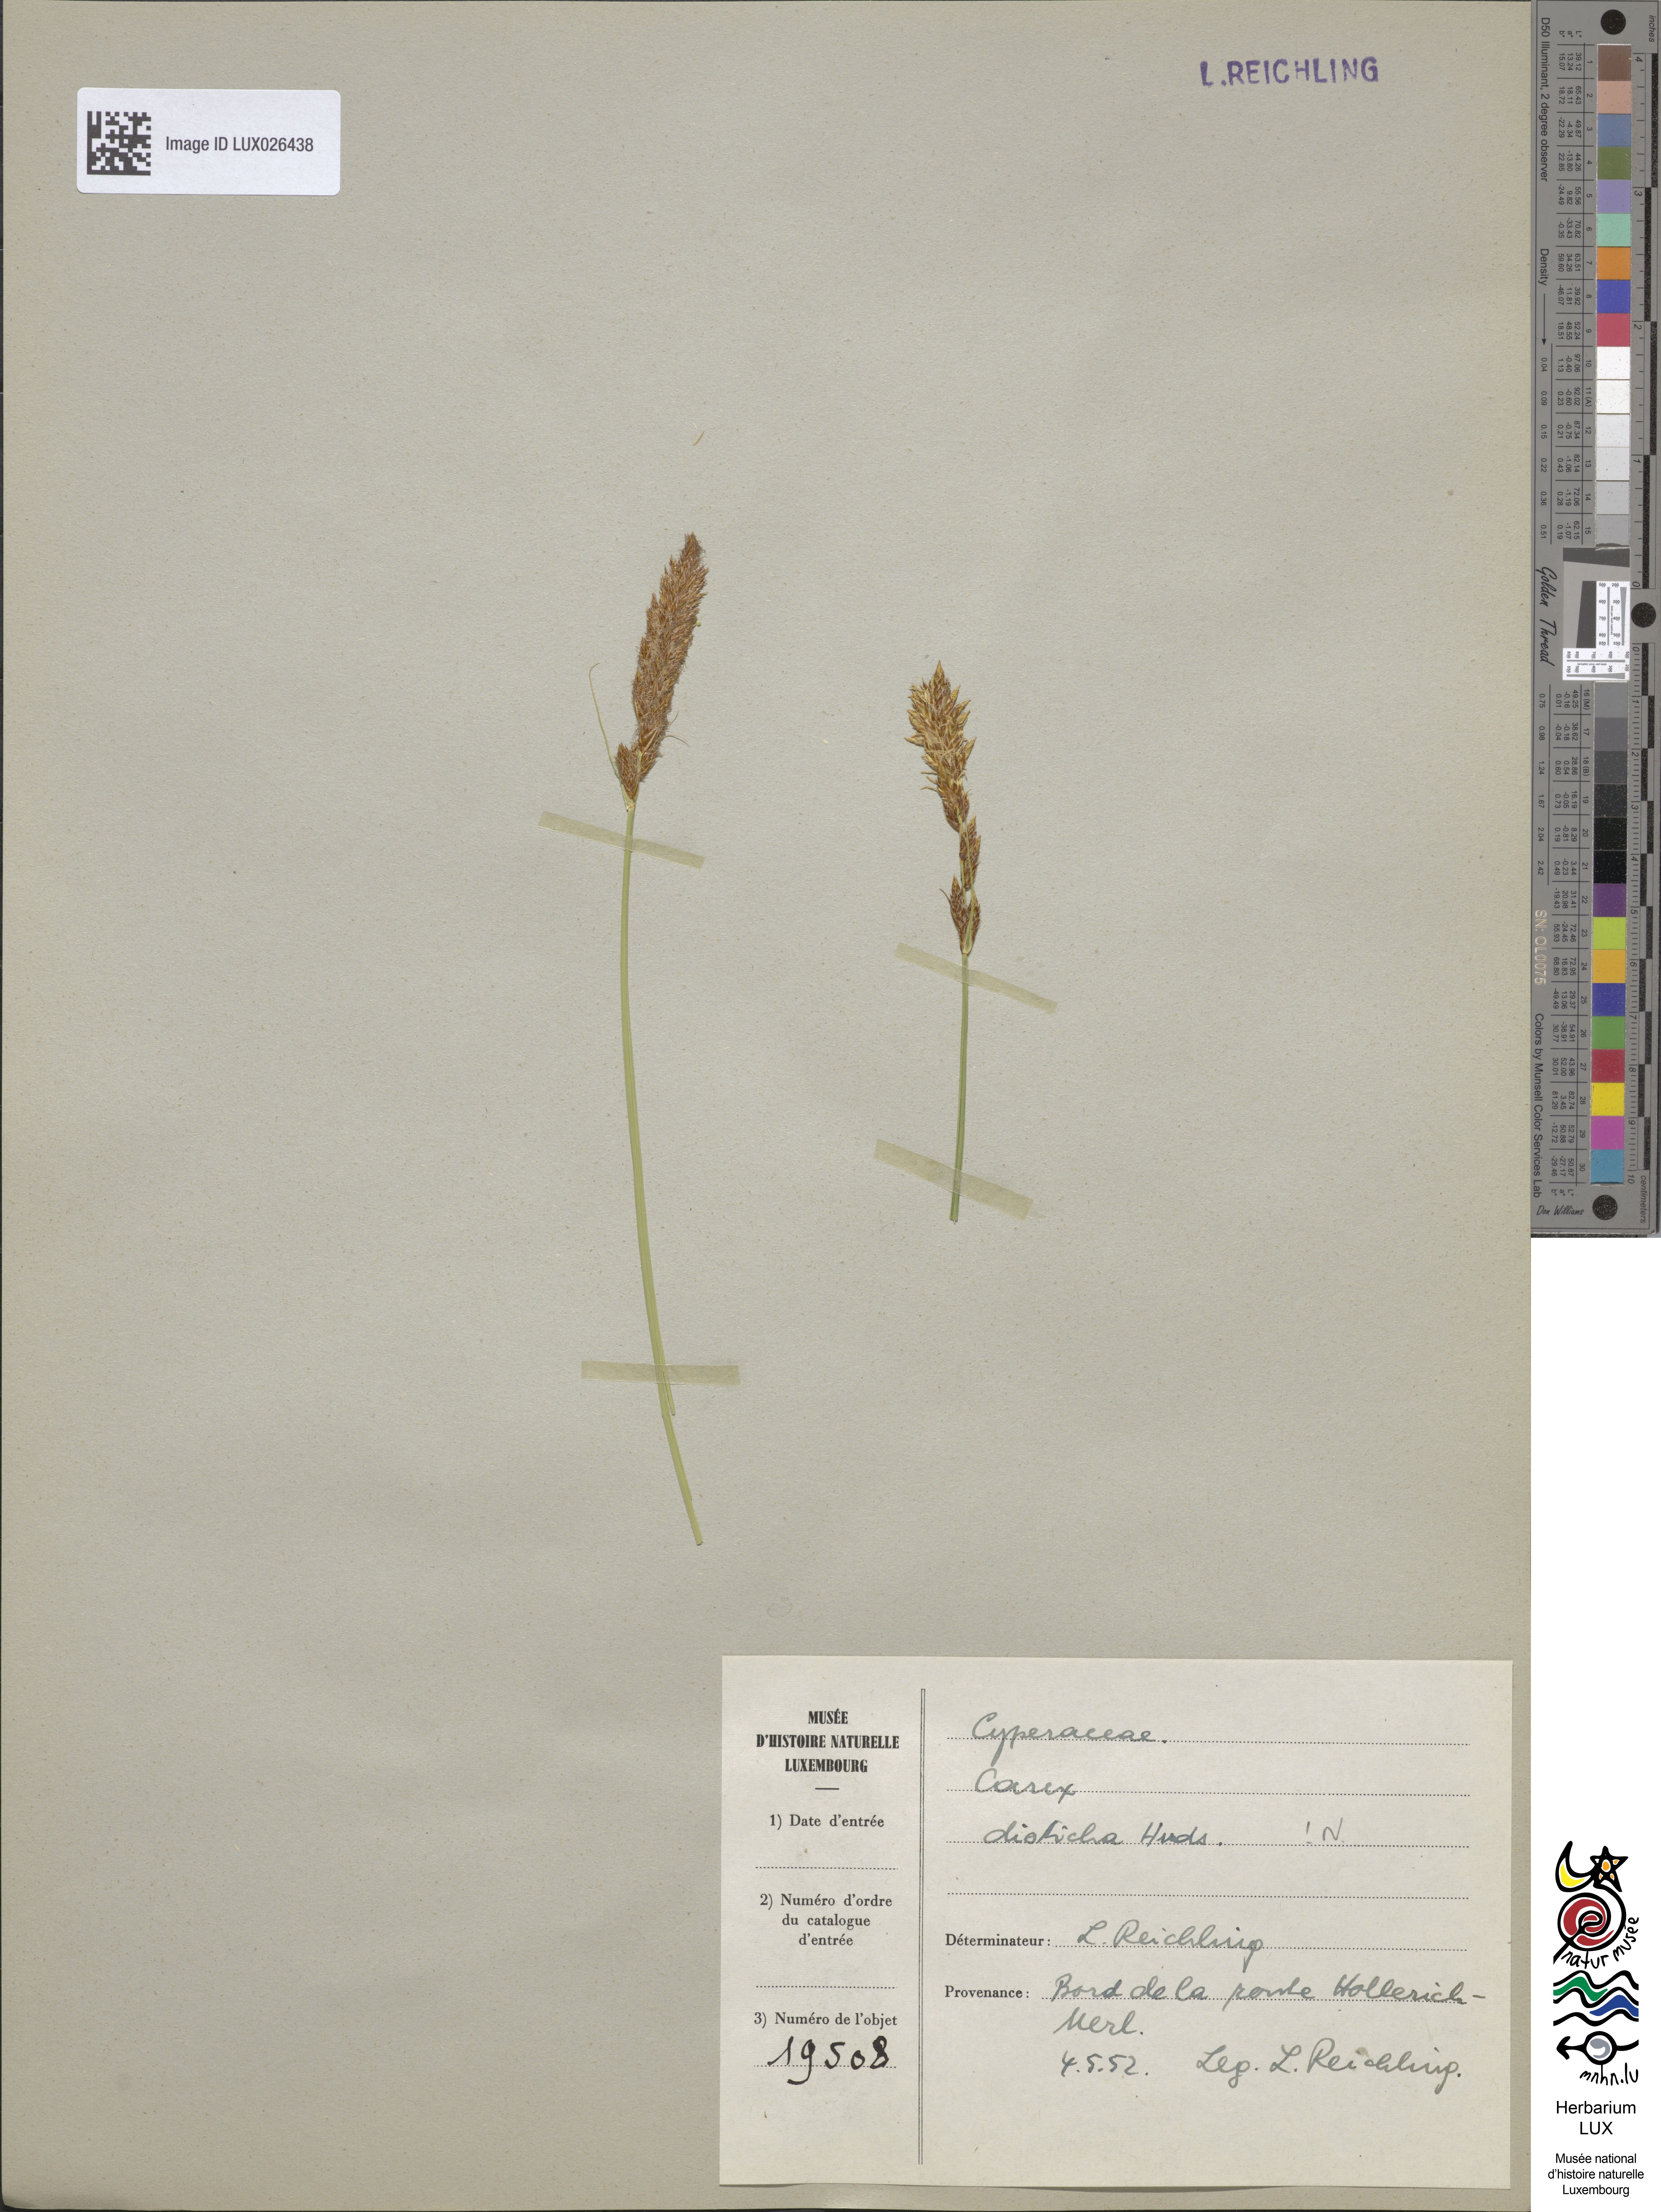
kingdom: Plantae
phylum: Tracheophyta
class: Liliopsida
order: Poales
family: Cyperaceae
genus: Carex
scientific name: Carex disticha
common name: Brown sedge
